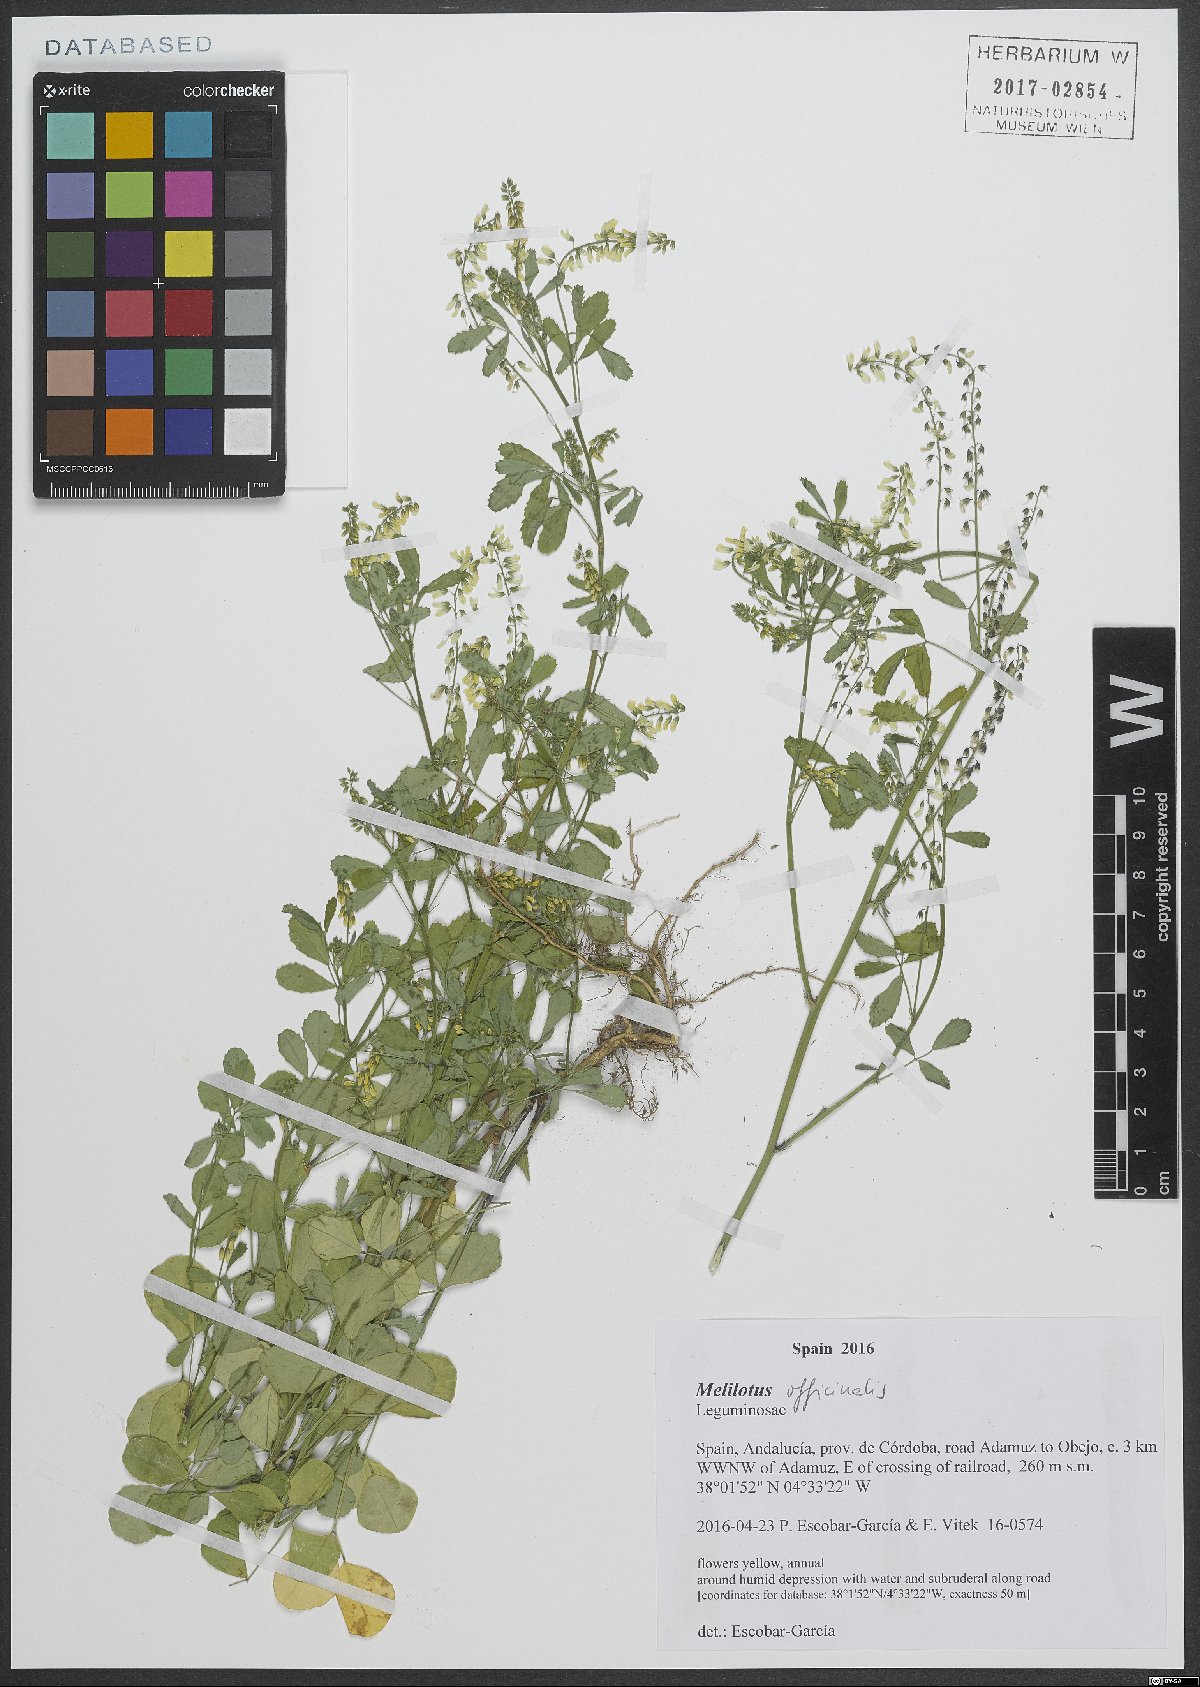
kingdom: Plantae
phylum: Tracheophyta
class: Magnoliopsida
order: Fabales
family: Fabaceae
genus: Melilotus
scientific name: Melilotus officinalis
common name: Sweetclover
